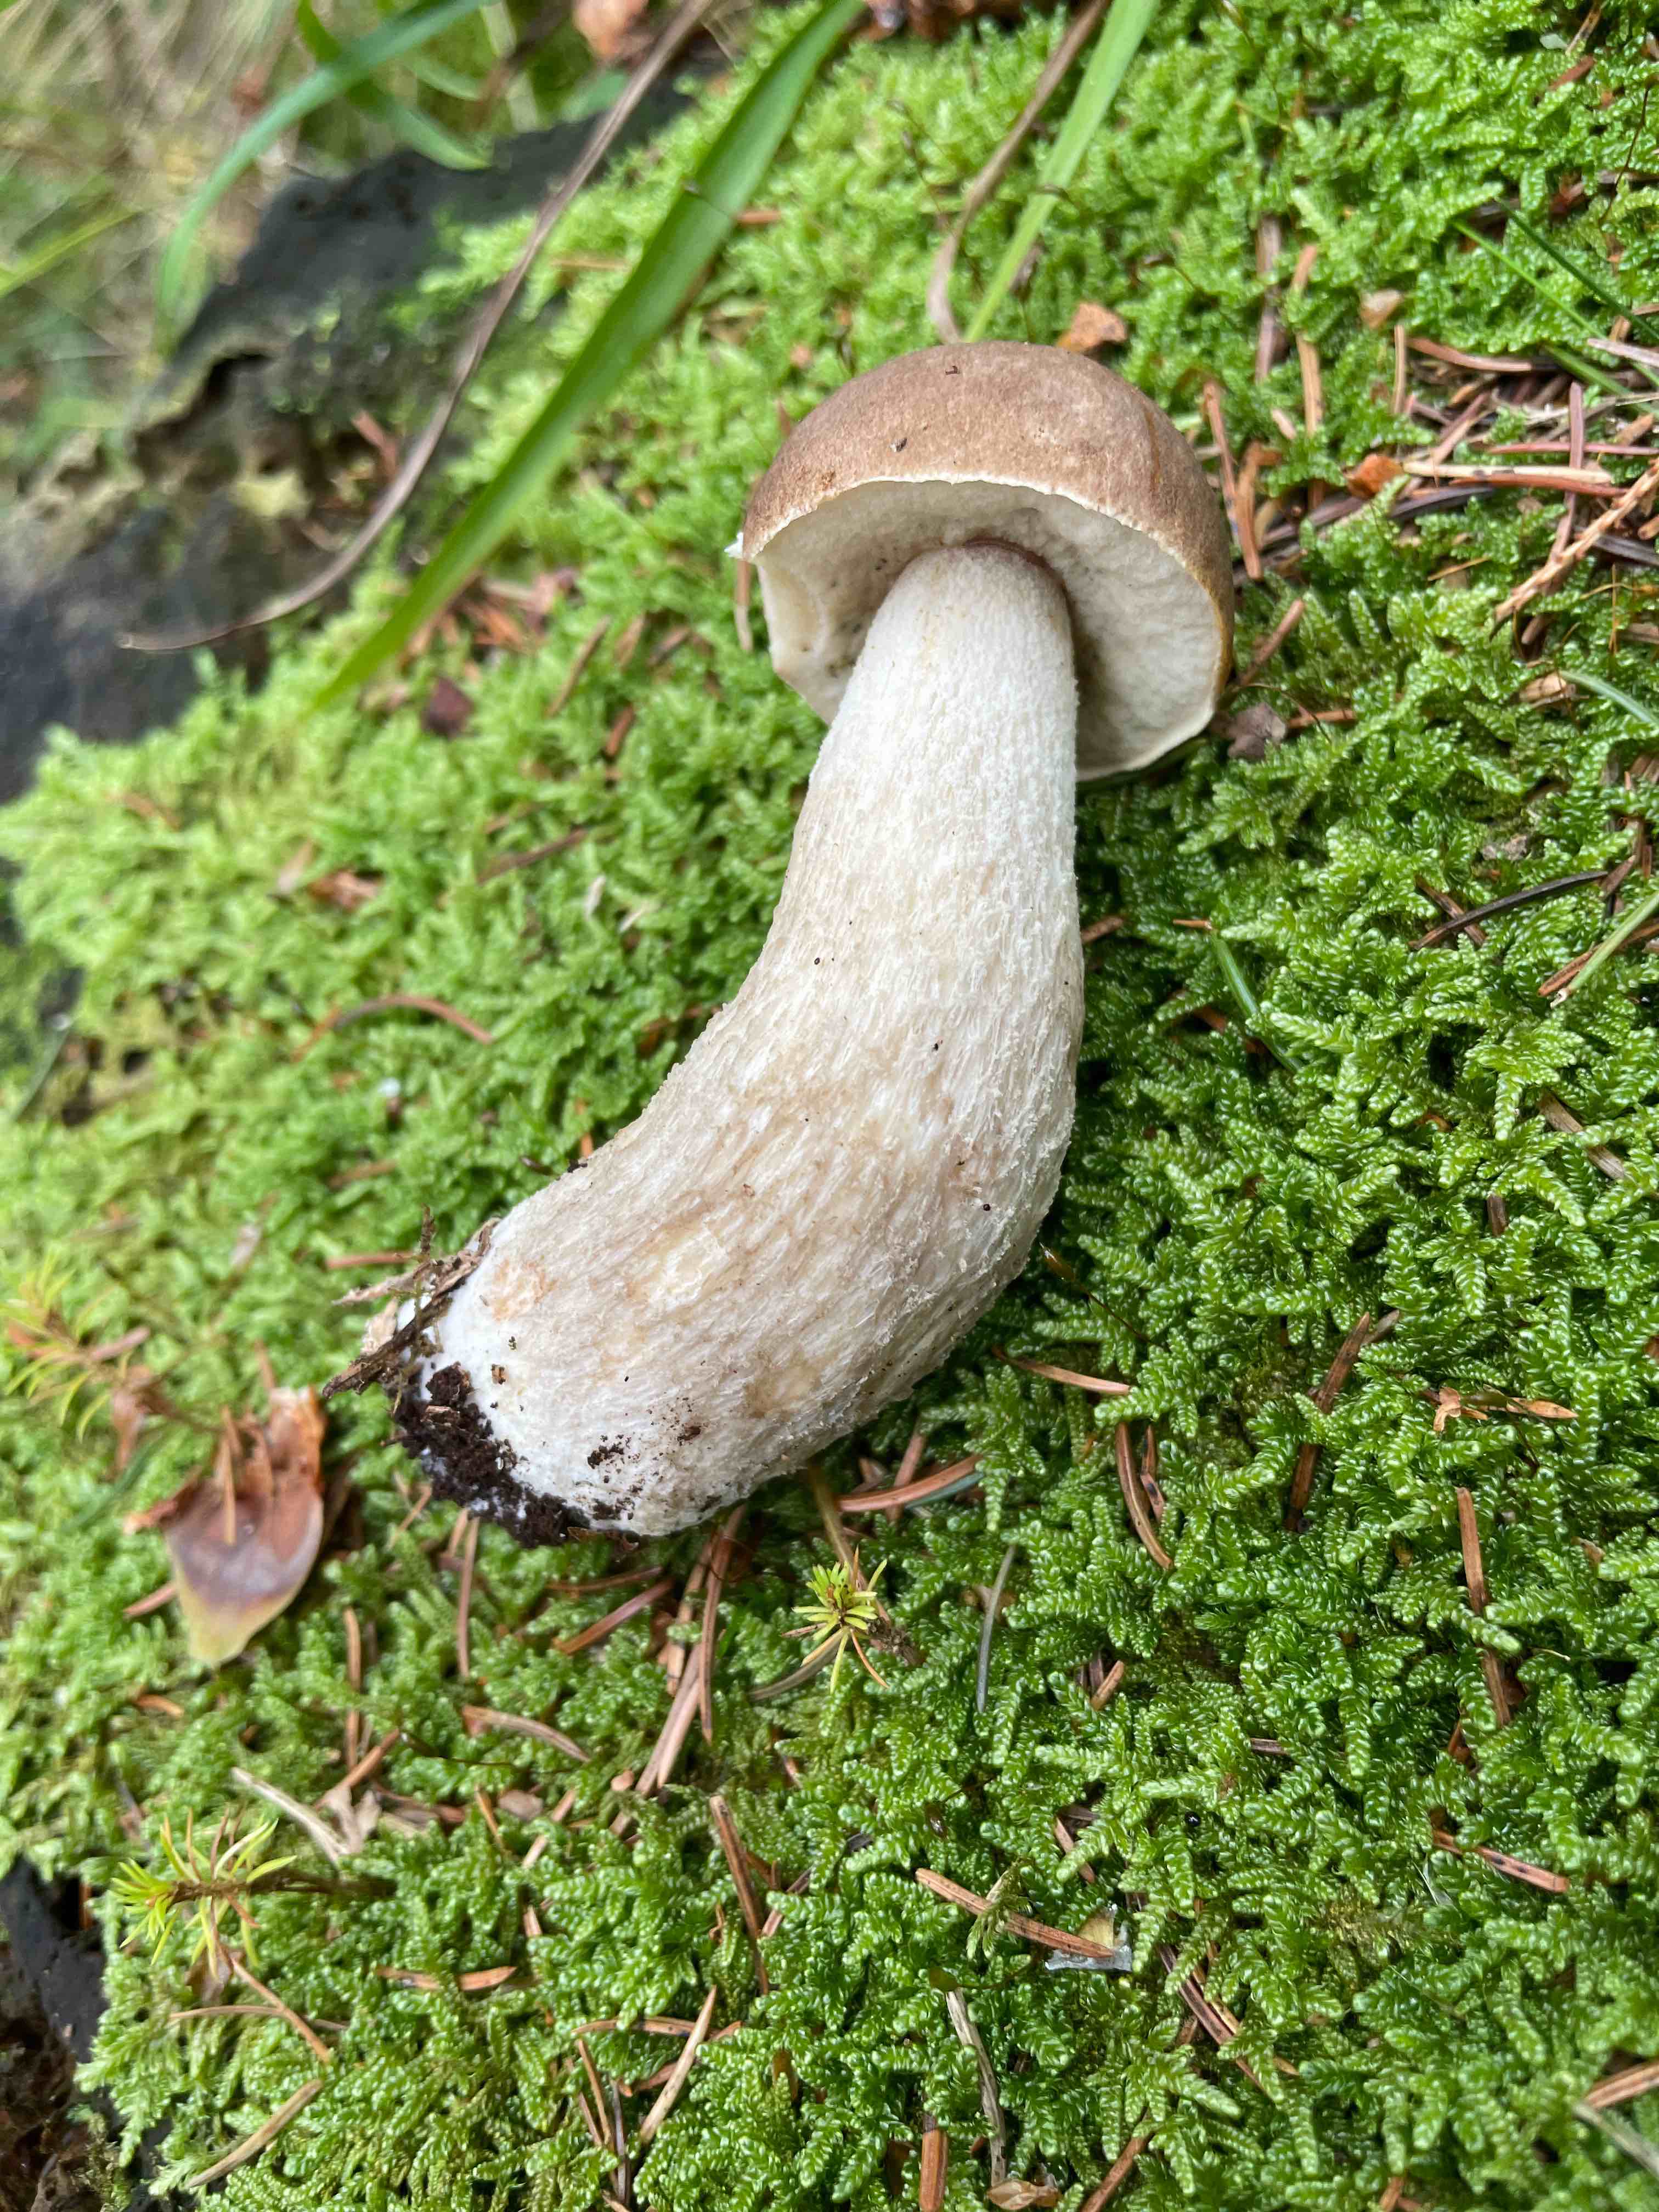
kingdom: Fungi
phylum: Basidiomycota
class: Agaricomycetes
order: Boletales
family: Boletaceae
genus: Leccinum
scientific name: Leccinum
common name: skælrørhat
